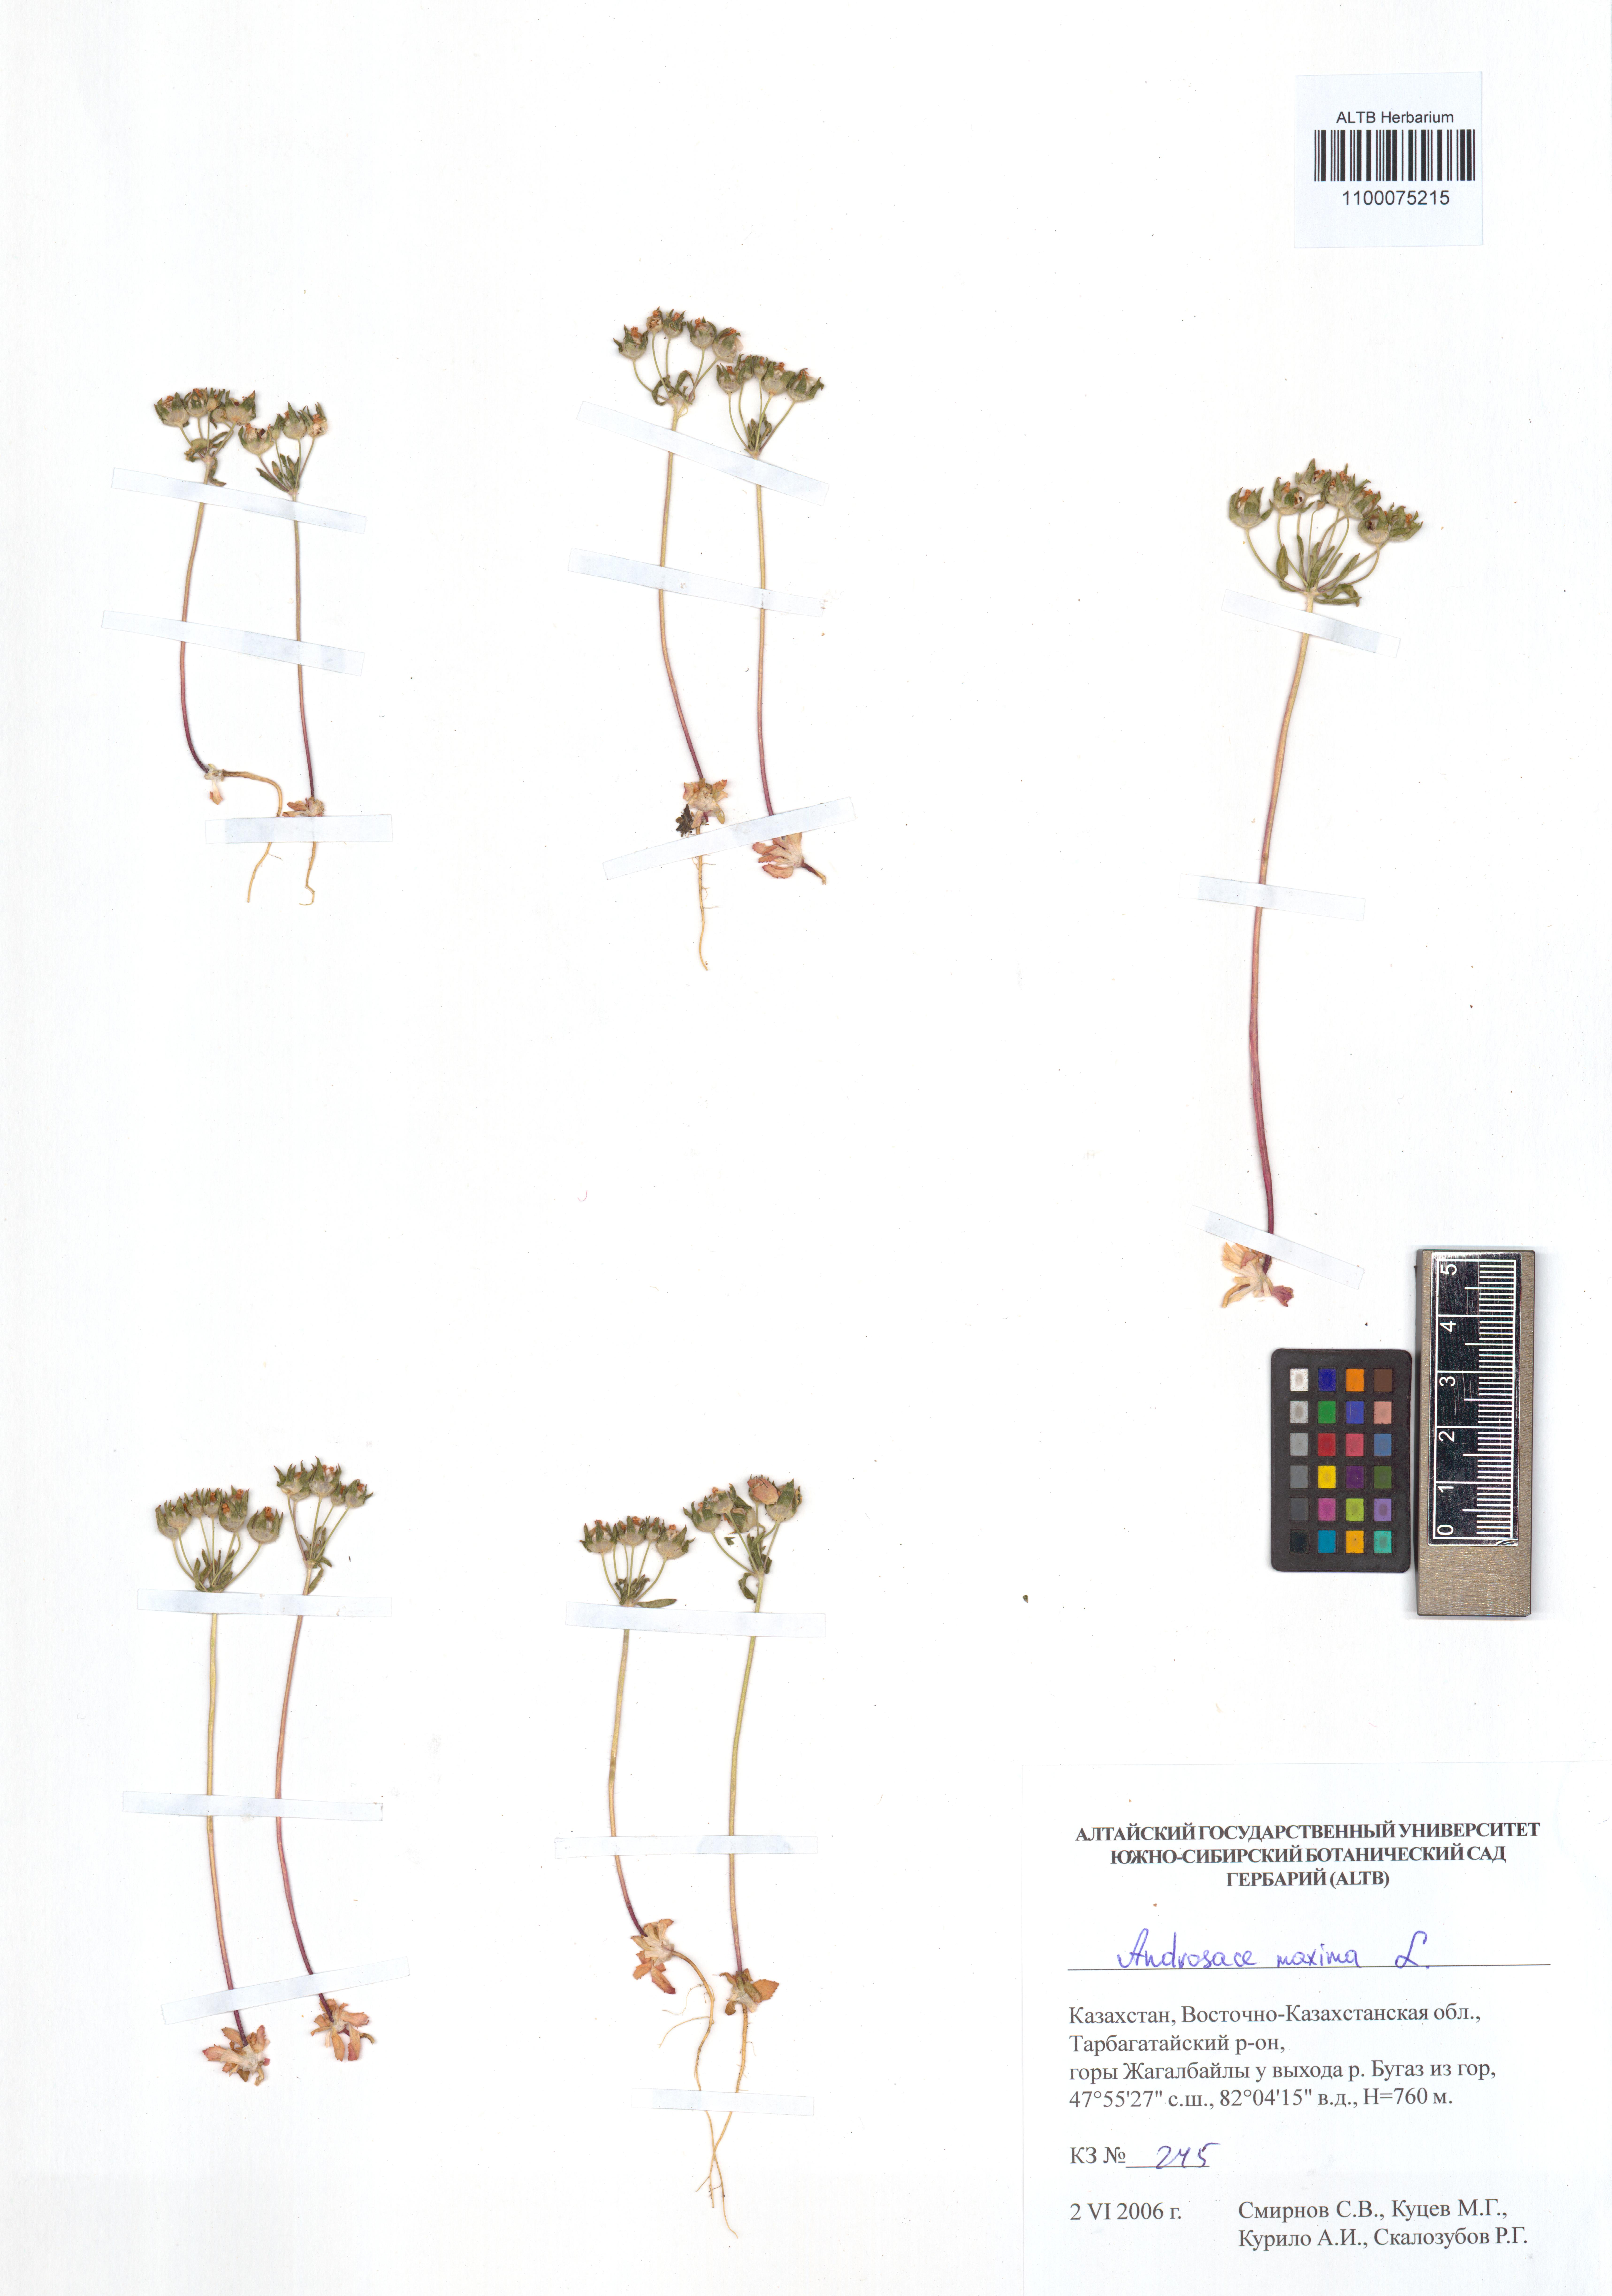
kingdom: Plantae
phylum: Tracheophyta
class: Magnoliopsida
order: Ericales
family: Primulaceae
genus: Androsace
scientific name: Androsace maxima
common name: Annual androsace
